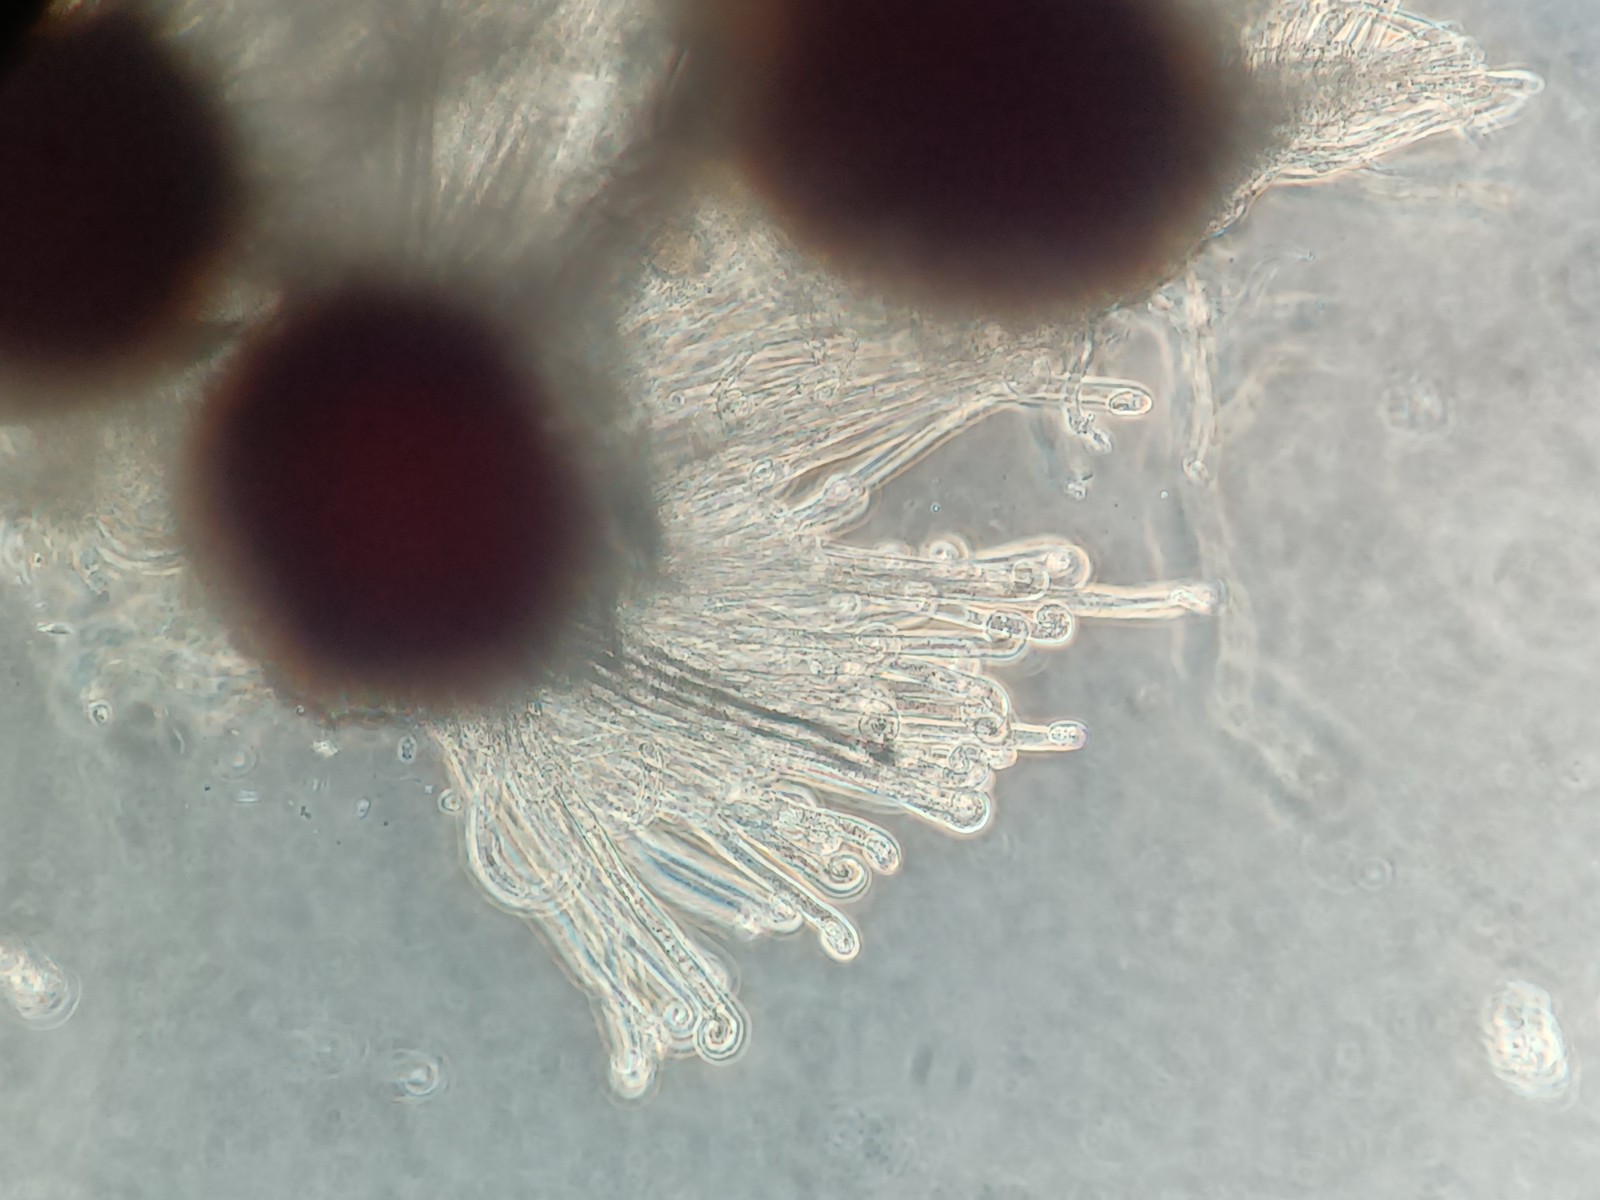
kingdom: Fungi
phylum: Ascomycota
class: Leotiomycetes
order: Helotiales
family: Erysiphaceae
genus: Erysiphe
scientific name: Erysiphe adunca
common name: pile-meldug
